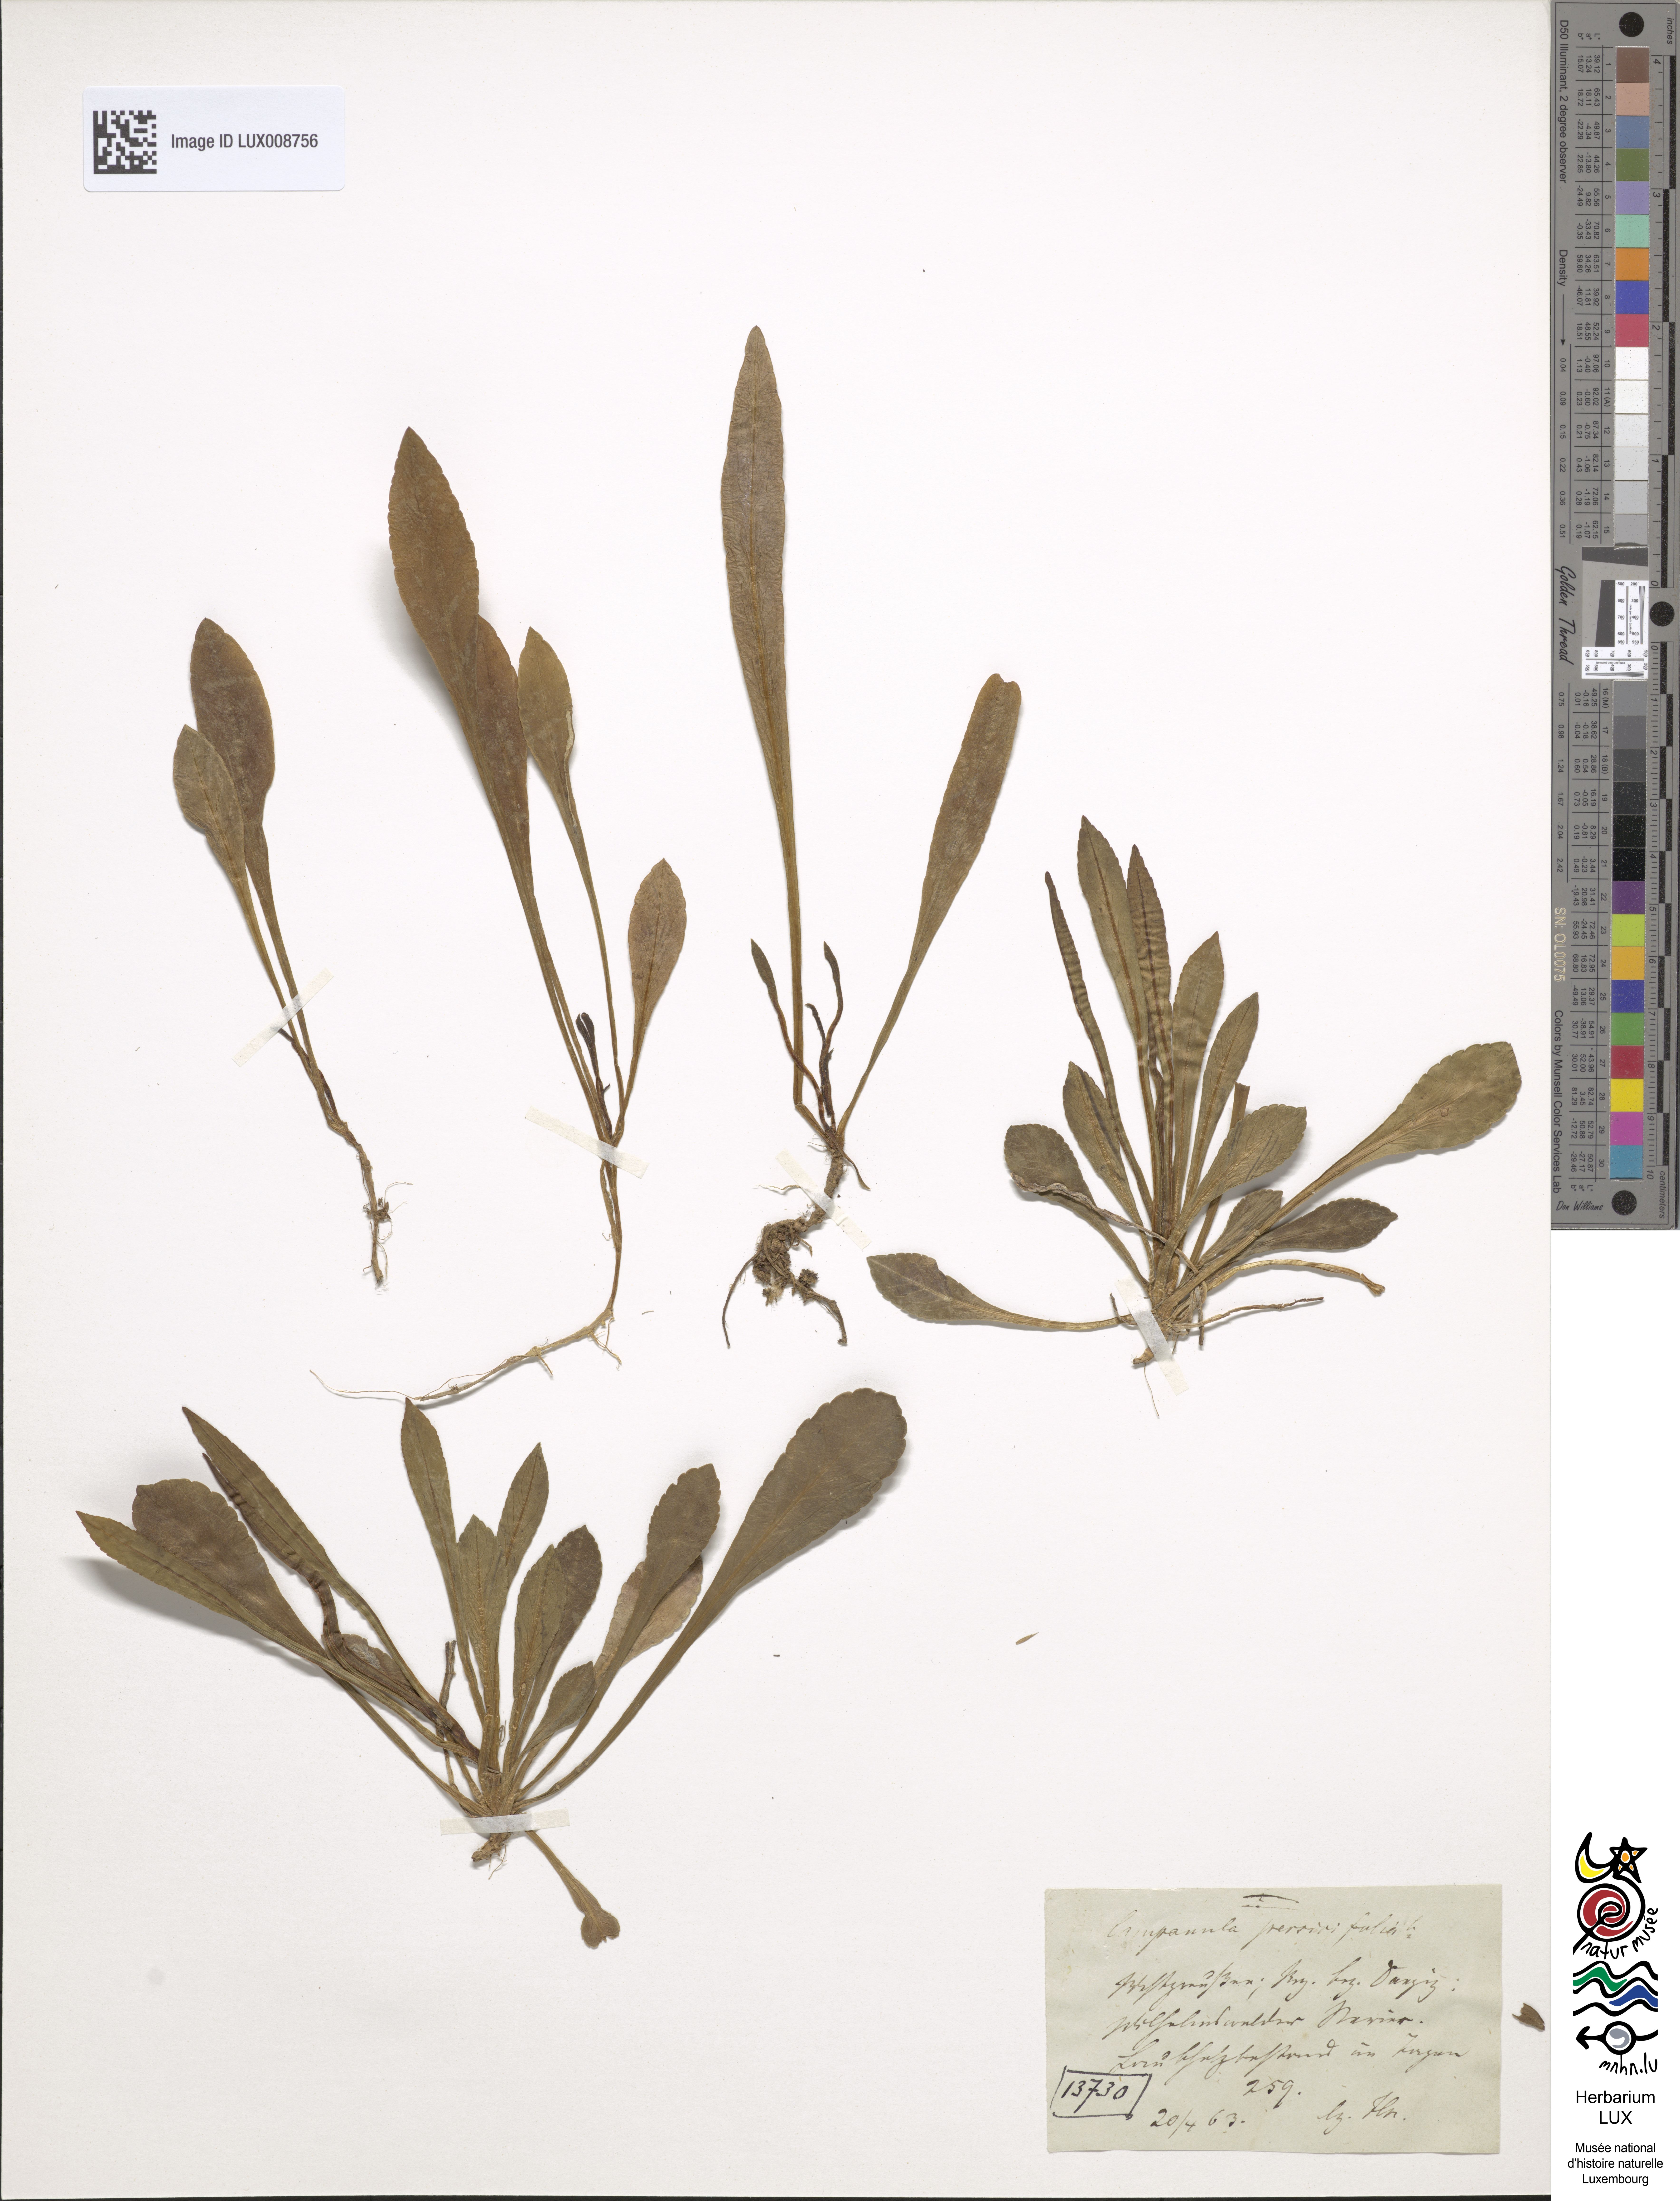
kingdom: Plantae
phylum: Tracheophyta
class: Magnoliopsida
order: Asterales
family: Campanulaceae
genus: Campanula
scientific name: Campanula persicifolia
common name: Peach-leaved bellflower
